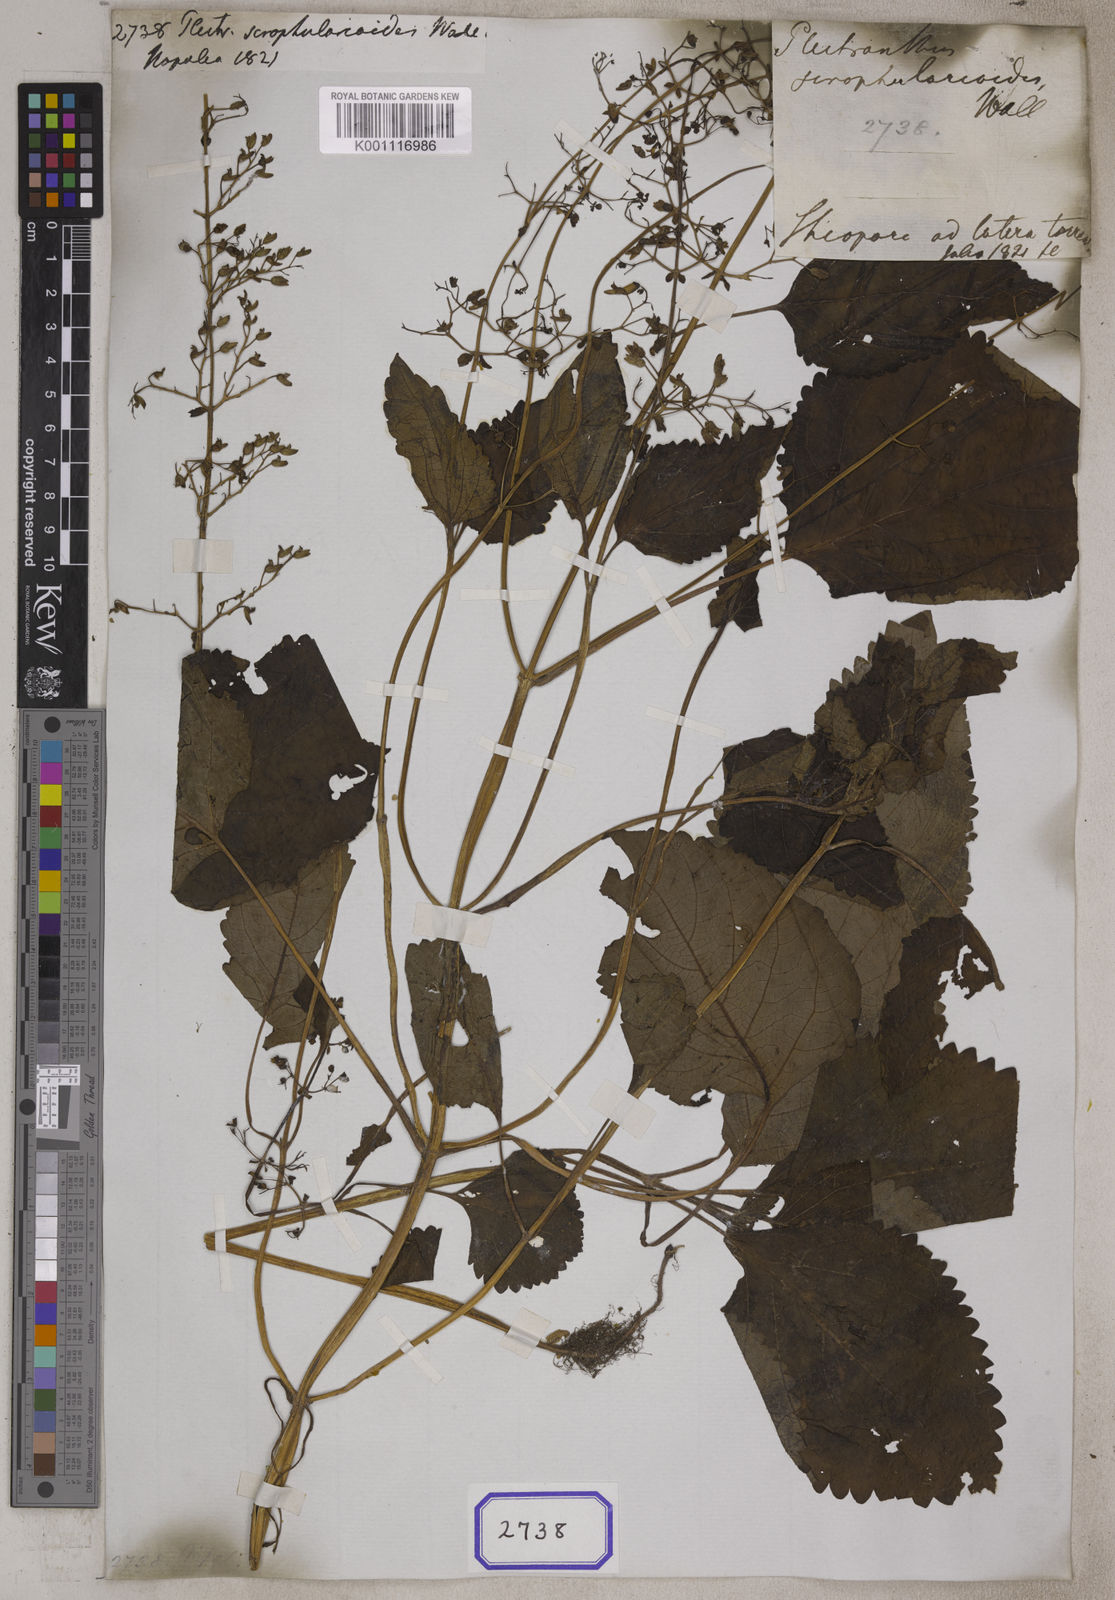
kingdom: Plantae
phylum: Tracheophyta
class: Magnoliopsida
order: Lamiales
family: Lamiaceae
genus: Plectranthus
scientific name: Plectranthus
